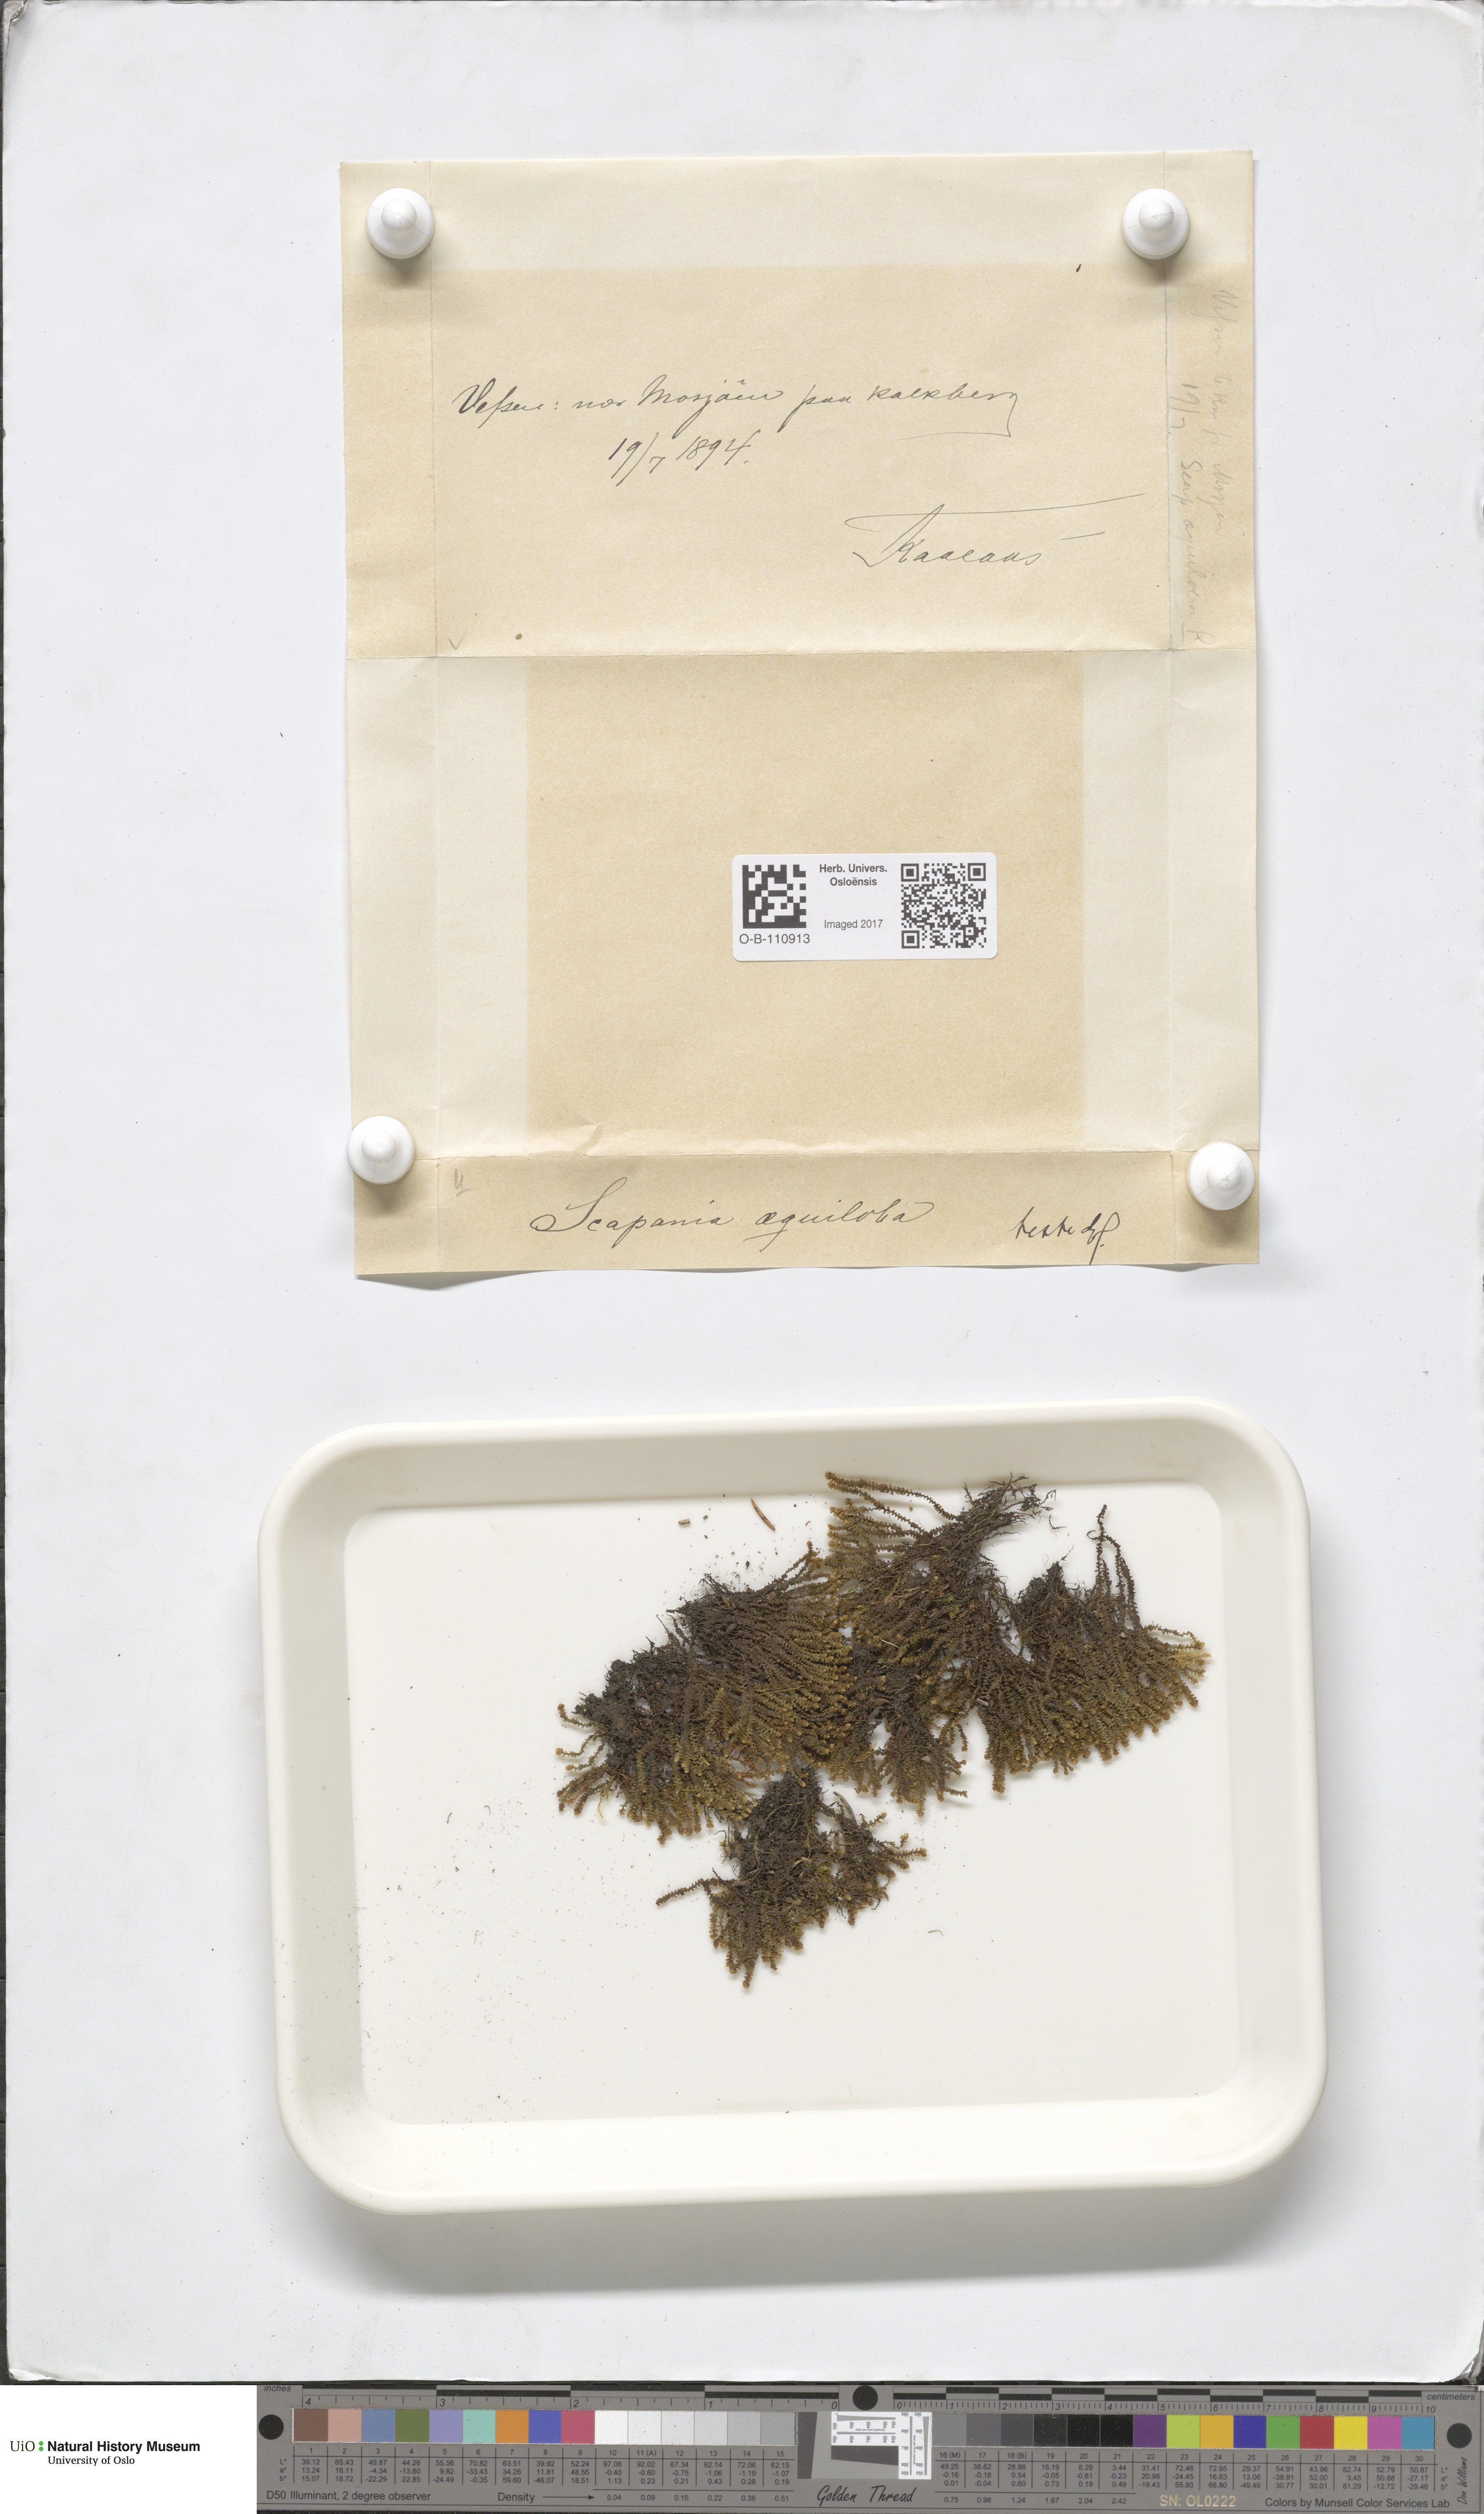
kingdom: Plantae
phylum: Marchantiophyta
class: Jungermanniopsida
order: Jungermanniales
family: Scapaniaceae
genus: Scapania
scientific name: Scapania aequiloba
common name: Lesser rough earwort
